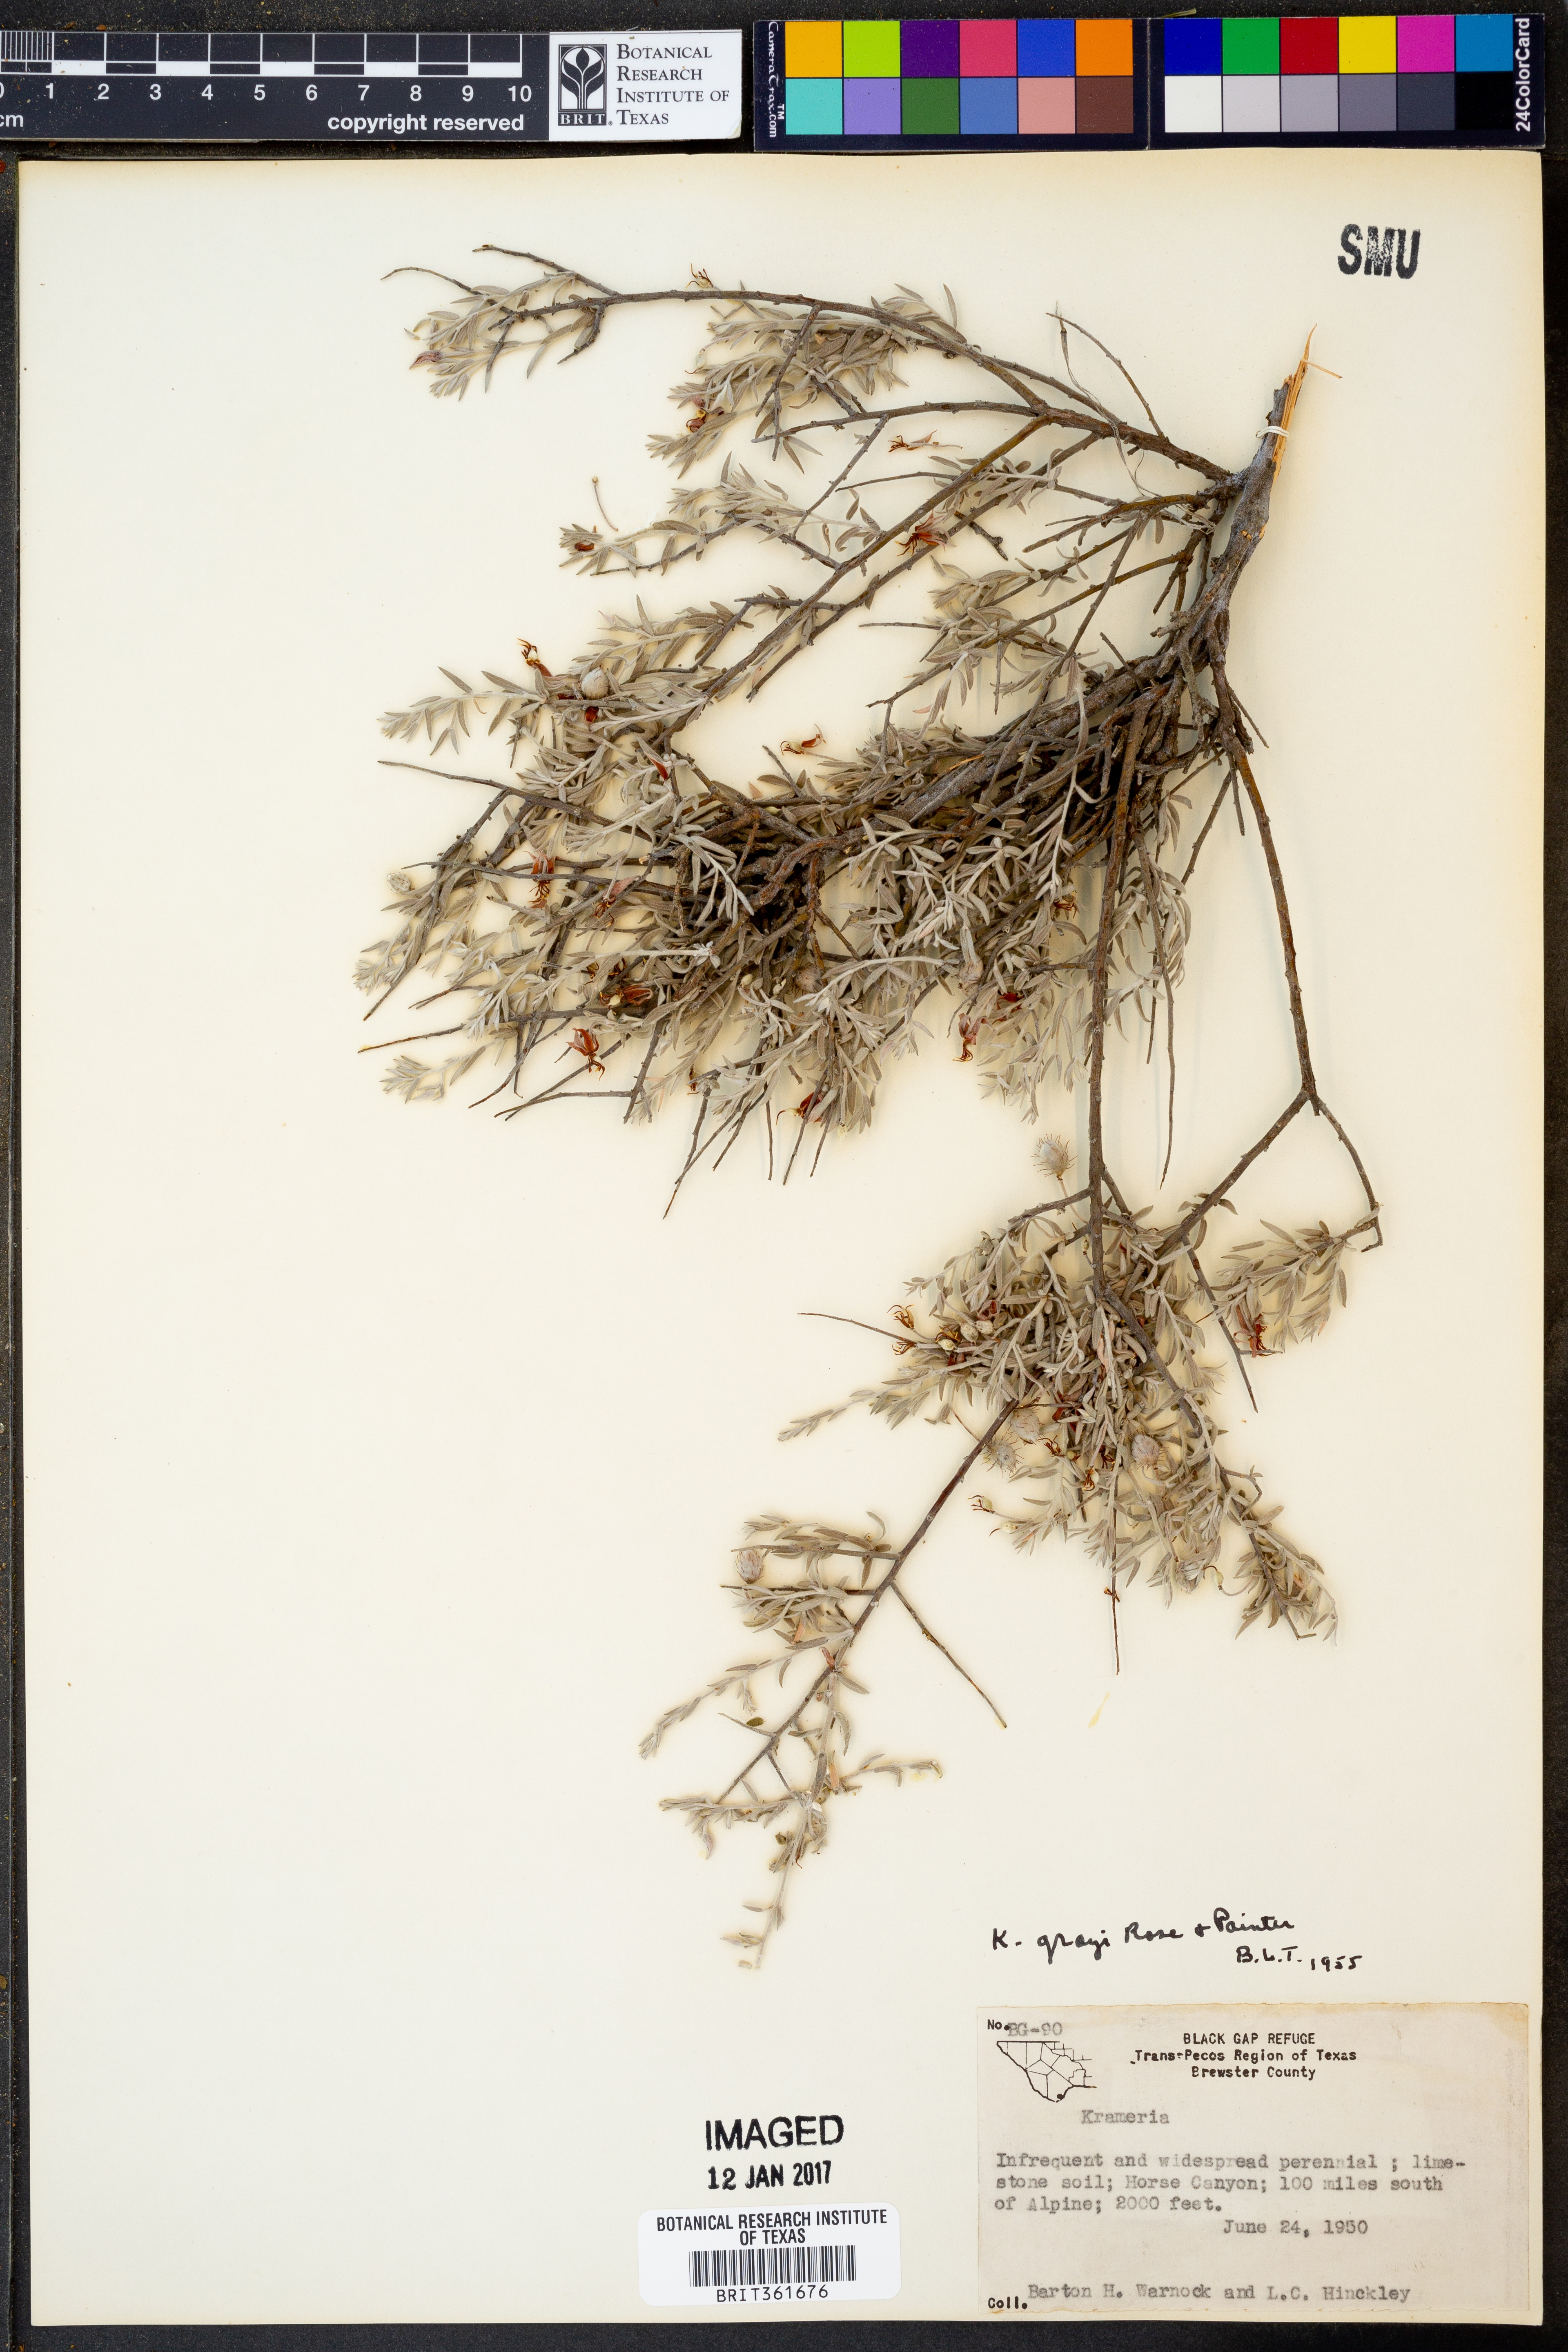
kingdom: Plantae
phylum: Tracheophyta
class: Magnoliopsida
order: Zygophyllales
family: Krameriaceae
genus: Krameria
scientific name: Krameria bicolor
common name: White ratany
